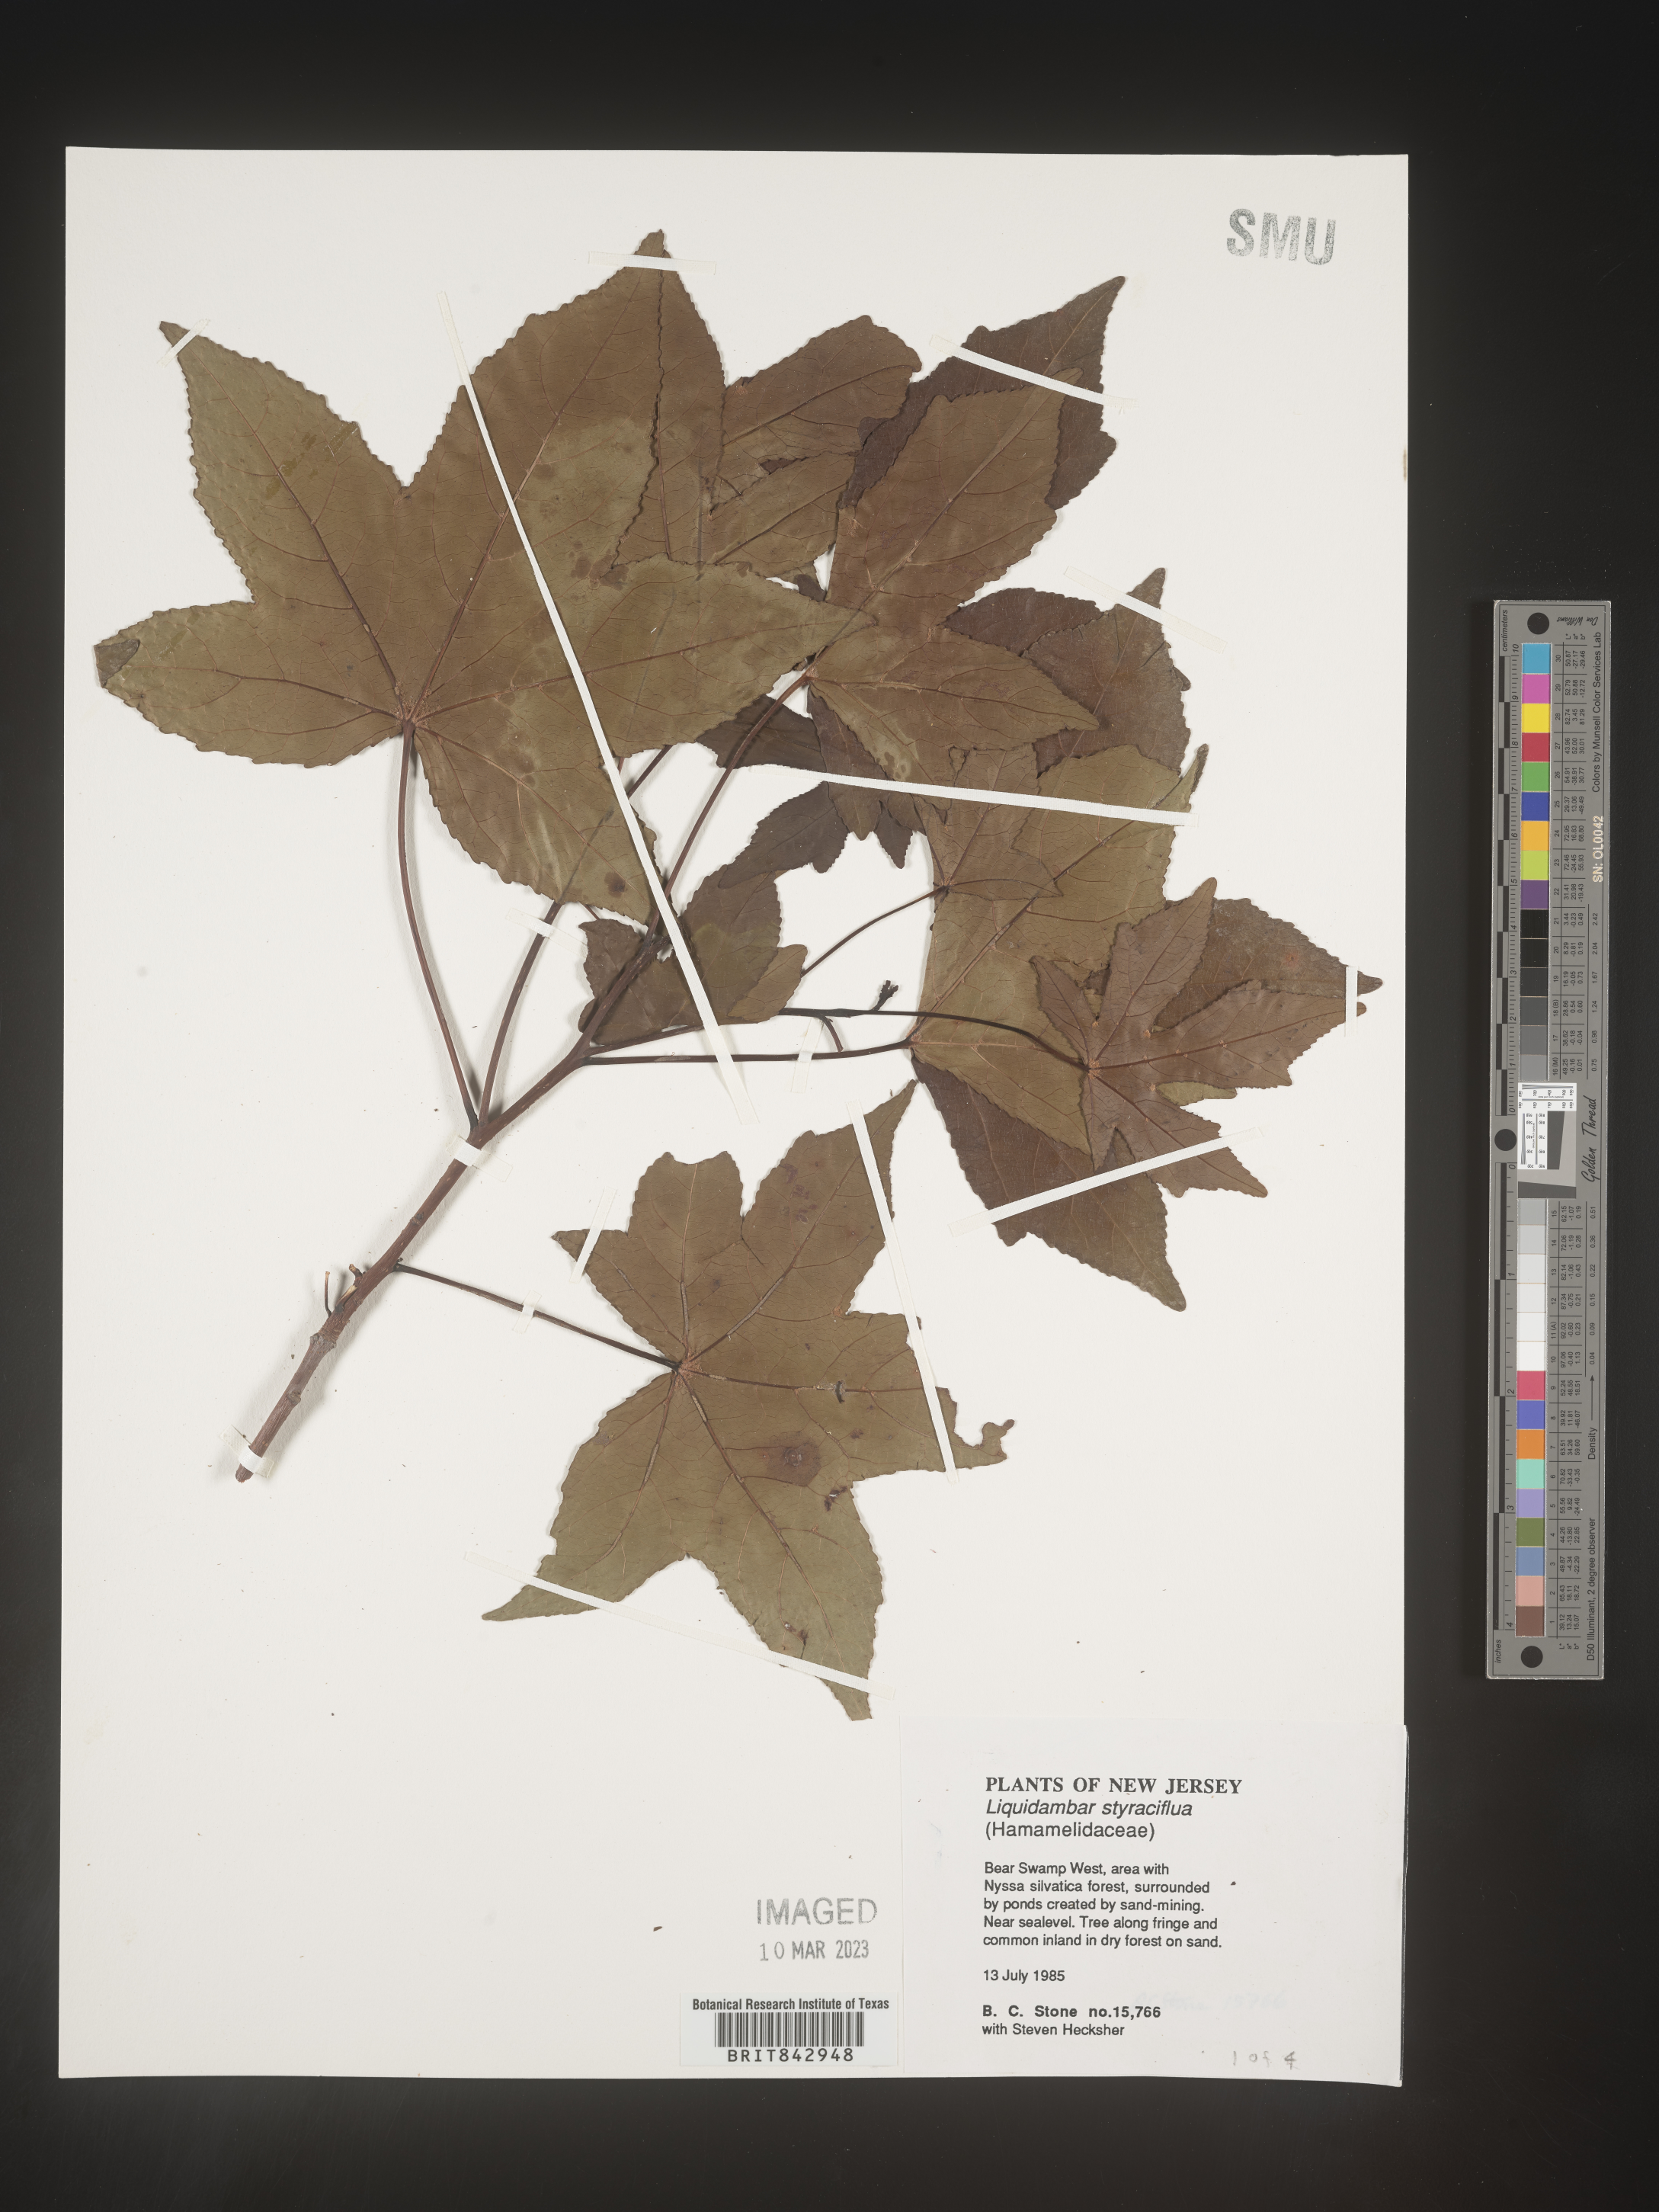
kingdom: Plantae
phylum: Tracheophyta
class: Magnoliopsida
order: Saxifragales
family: Altingiaceae
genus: Liquidambar
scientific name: Liquidambar styraciflua
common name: Sweet gum
